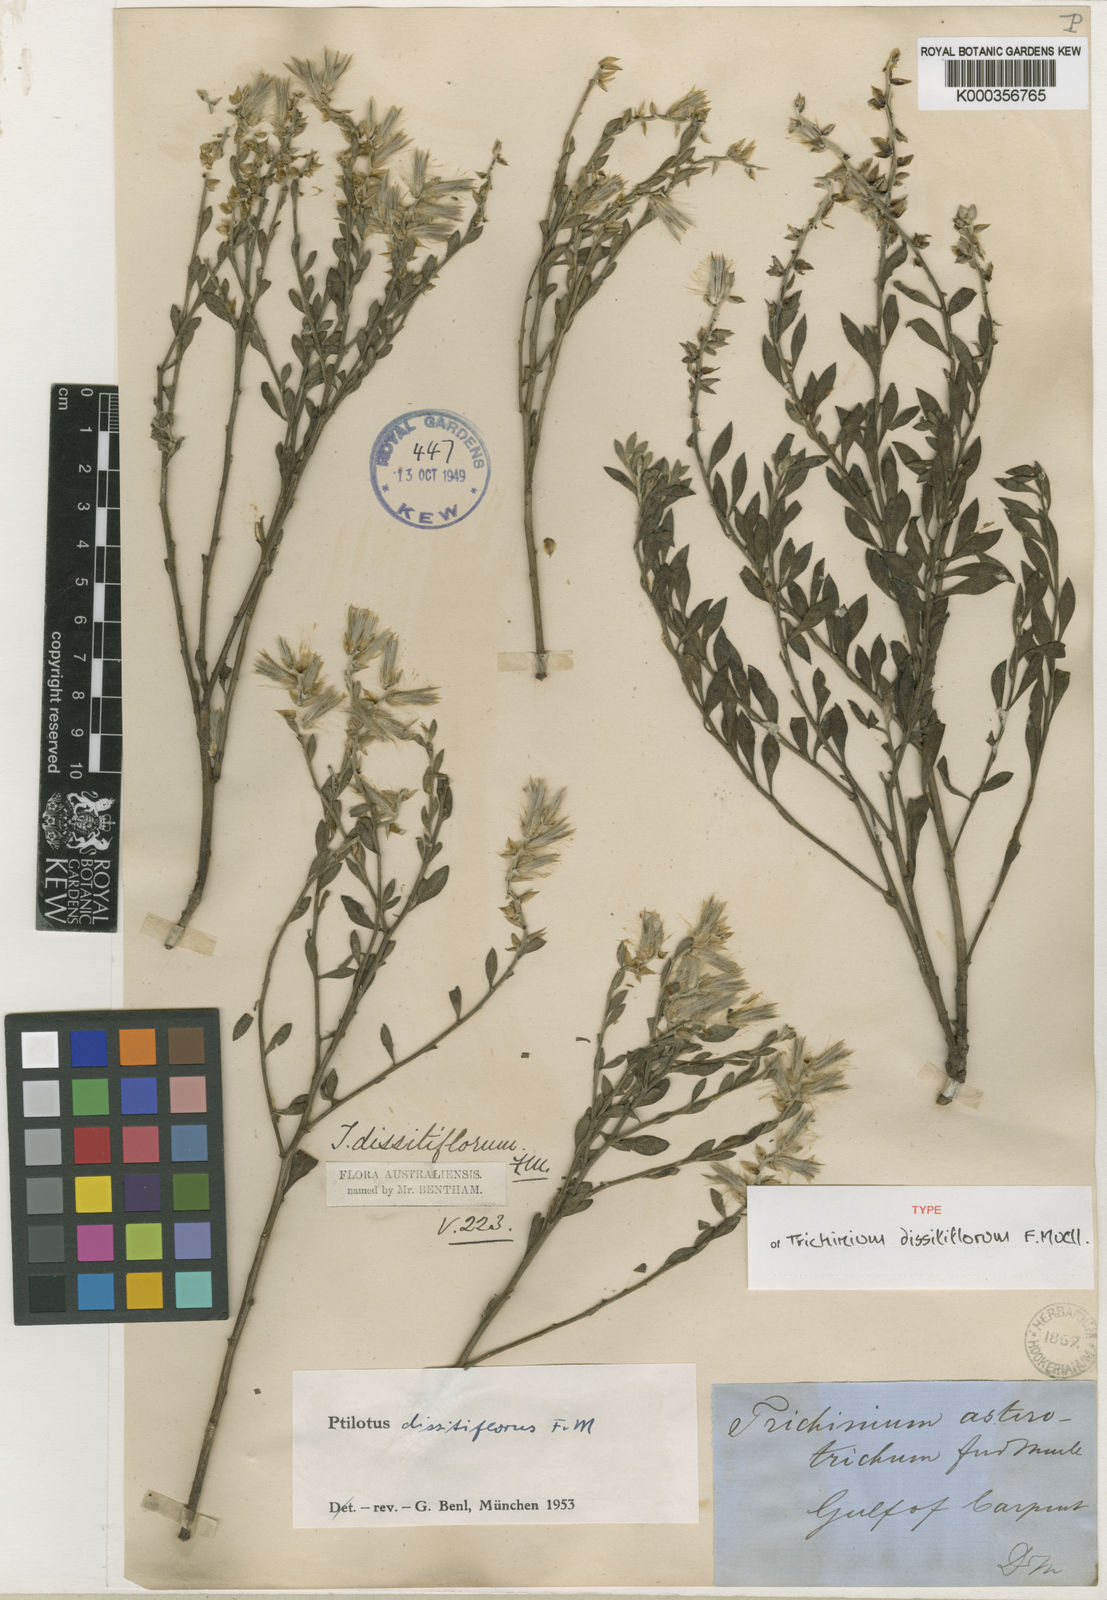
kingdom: Plantae
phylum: Tracheophyta
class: Magnoliopsida
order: Caryophyllales
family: Amaranthaceae
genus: Ptilotus
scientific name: Ptilotus dissitiflorus
